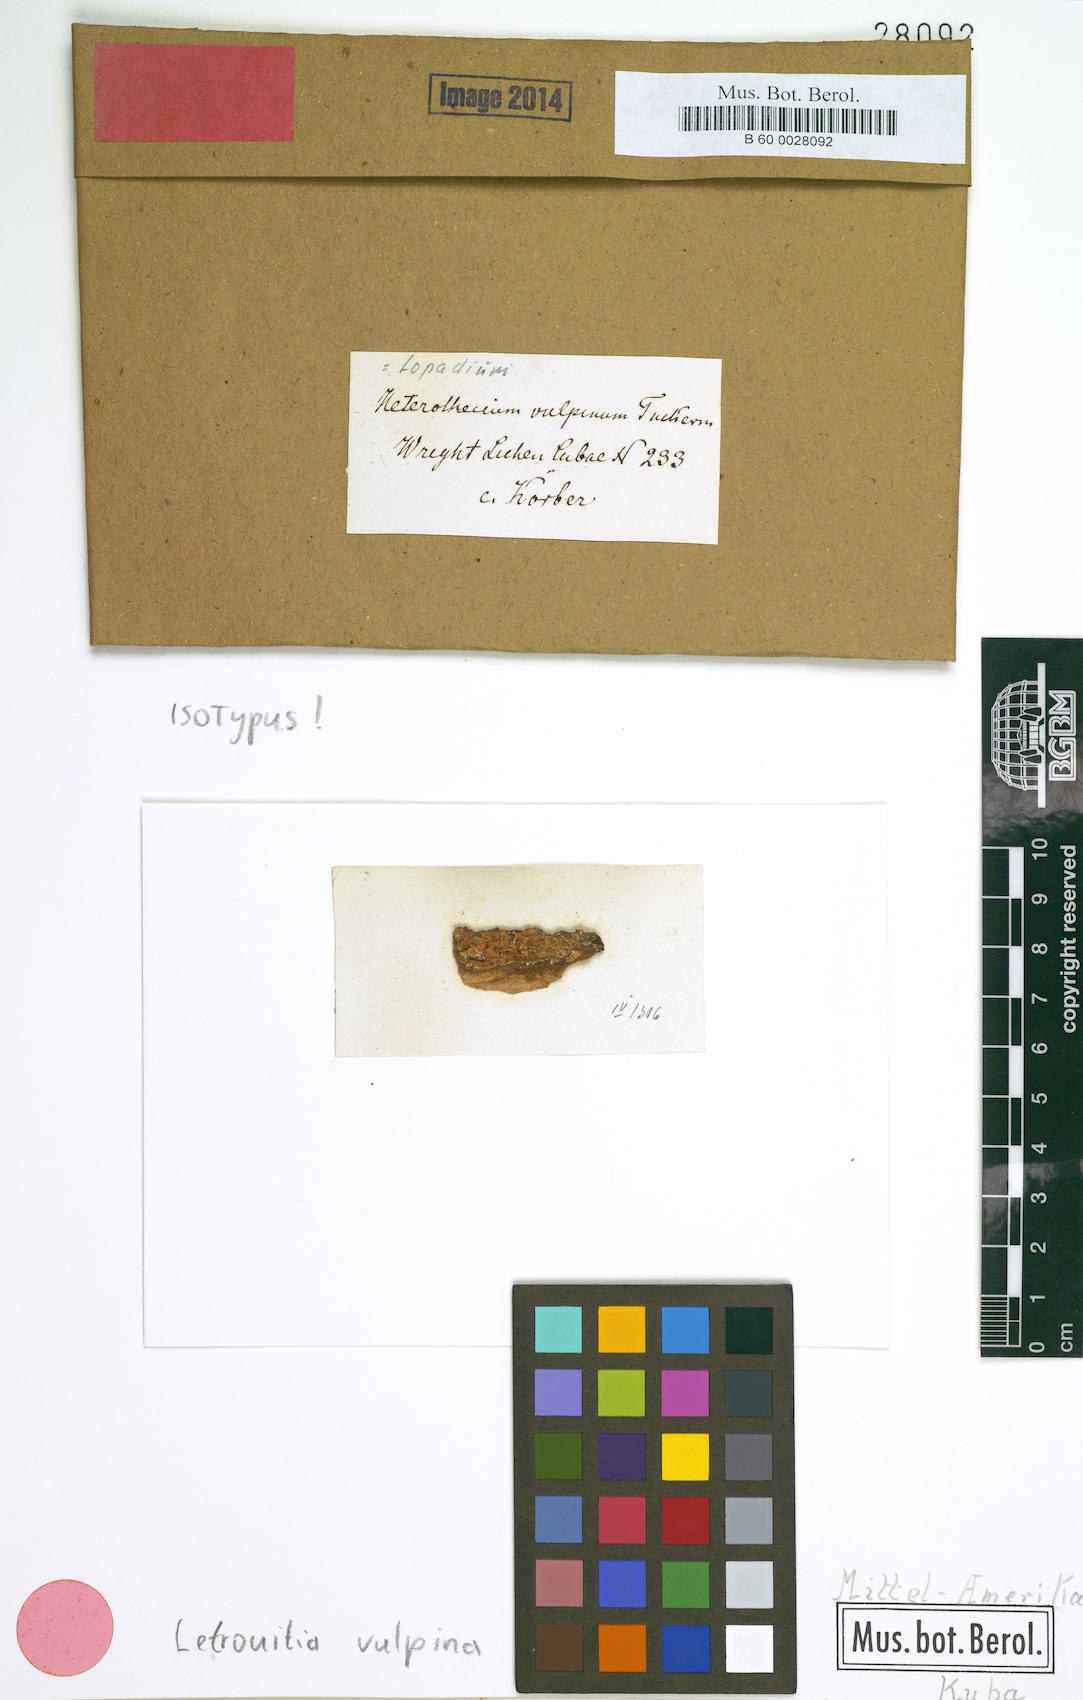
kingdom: Fungi
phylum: Ascomycota
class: Lecanoromycetes
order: Teloschistales
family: Letrouitiaceae
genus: Letrouitia
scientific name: Letrouitia vulpina
